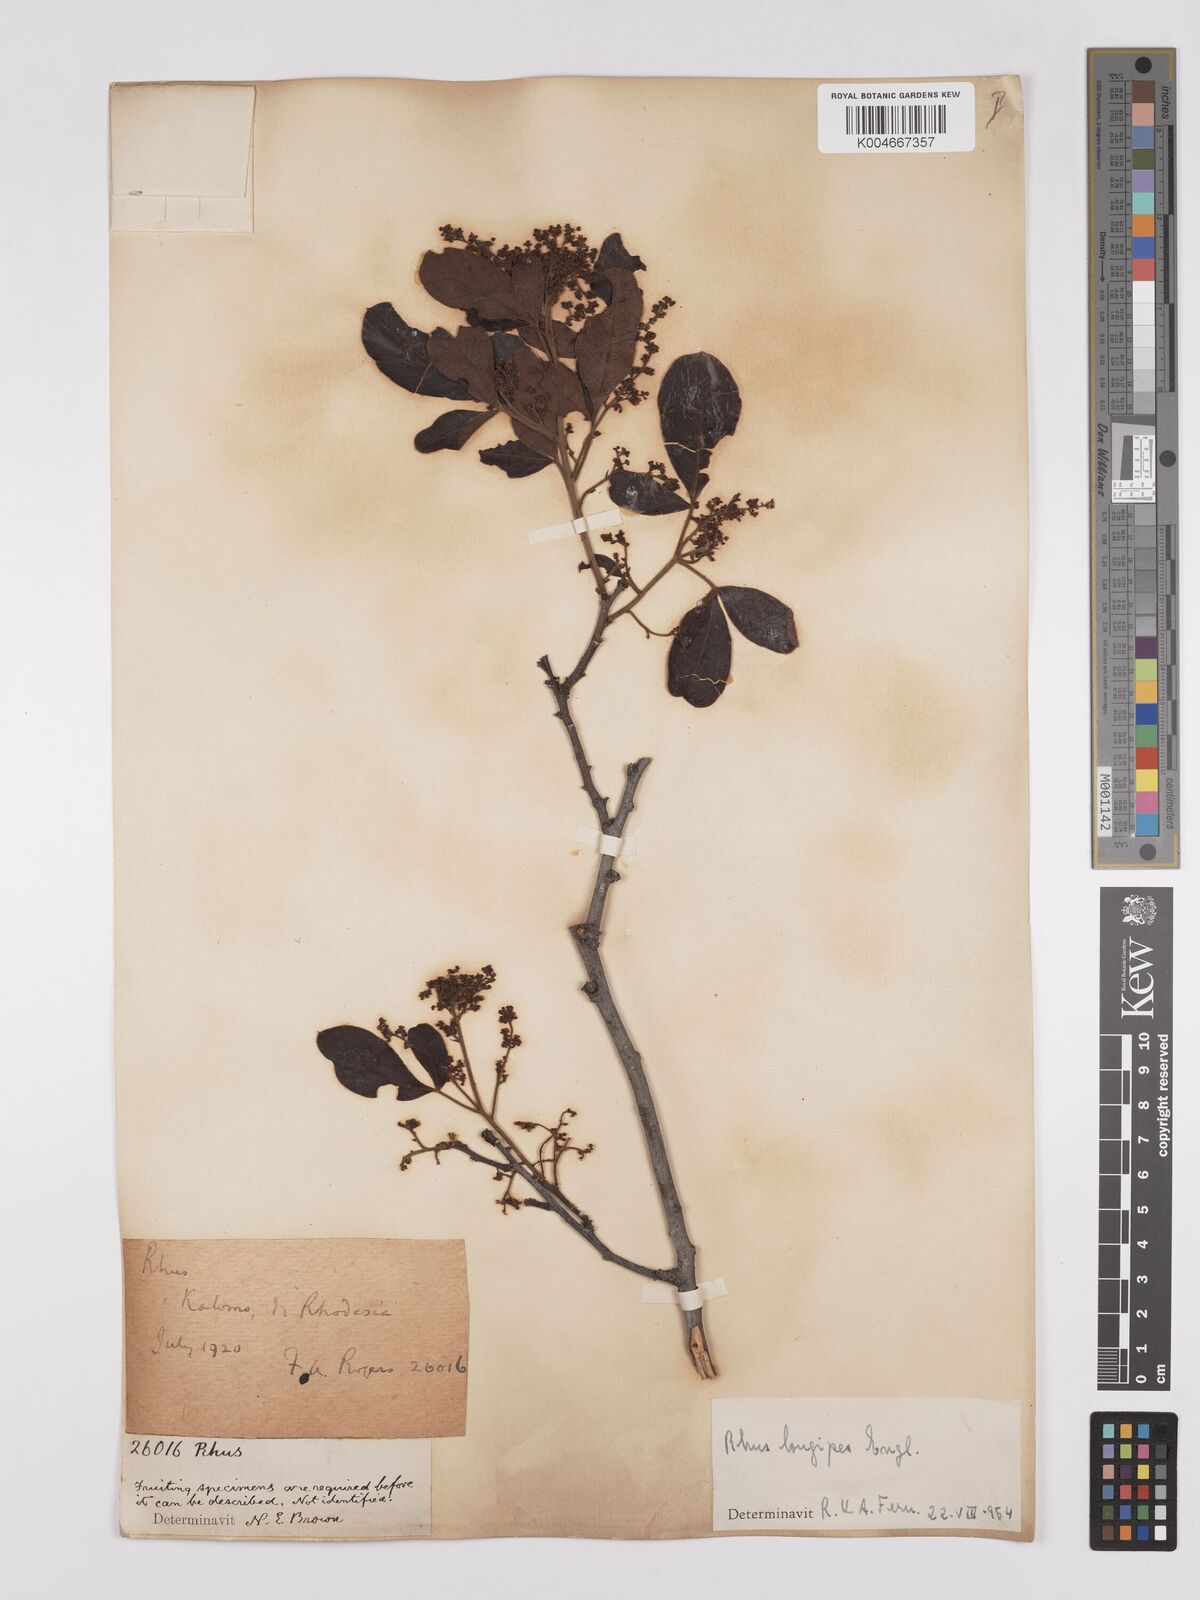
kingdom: Plantae
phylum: Tracheophyta
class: Magnoliopsida
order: Sapindales
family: Anacardiaceae
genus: Searsia
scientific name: Searsia longipes
